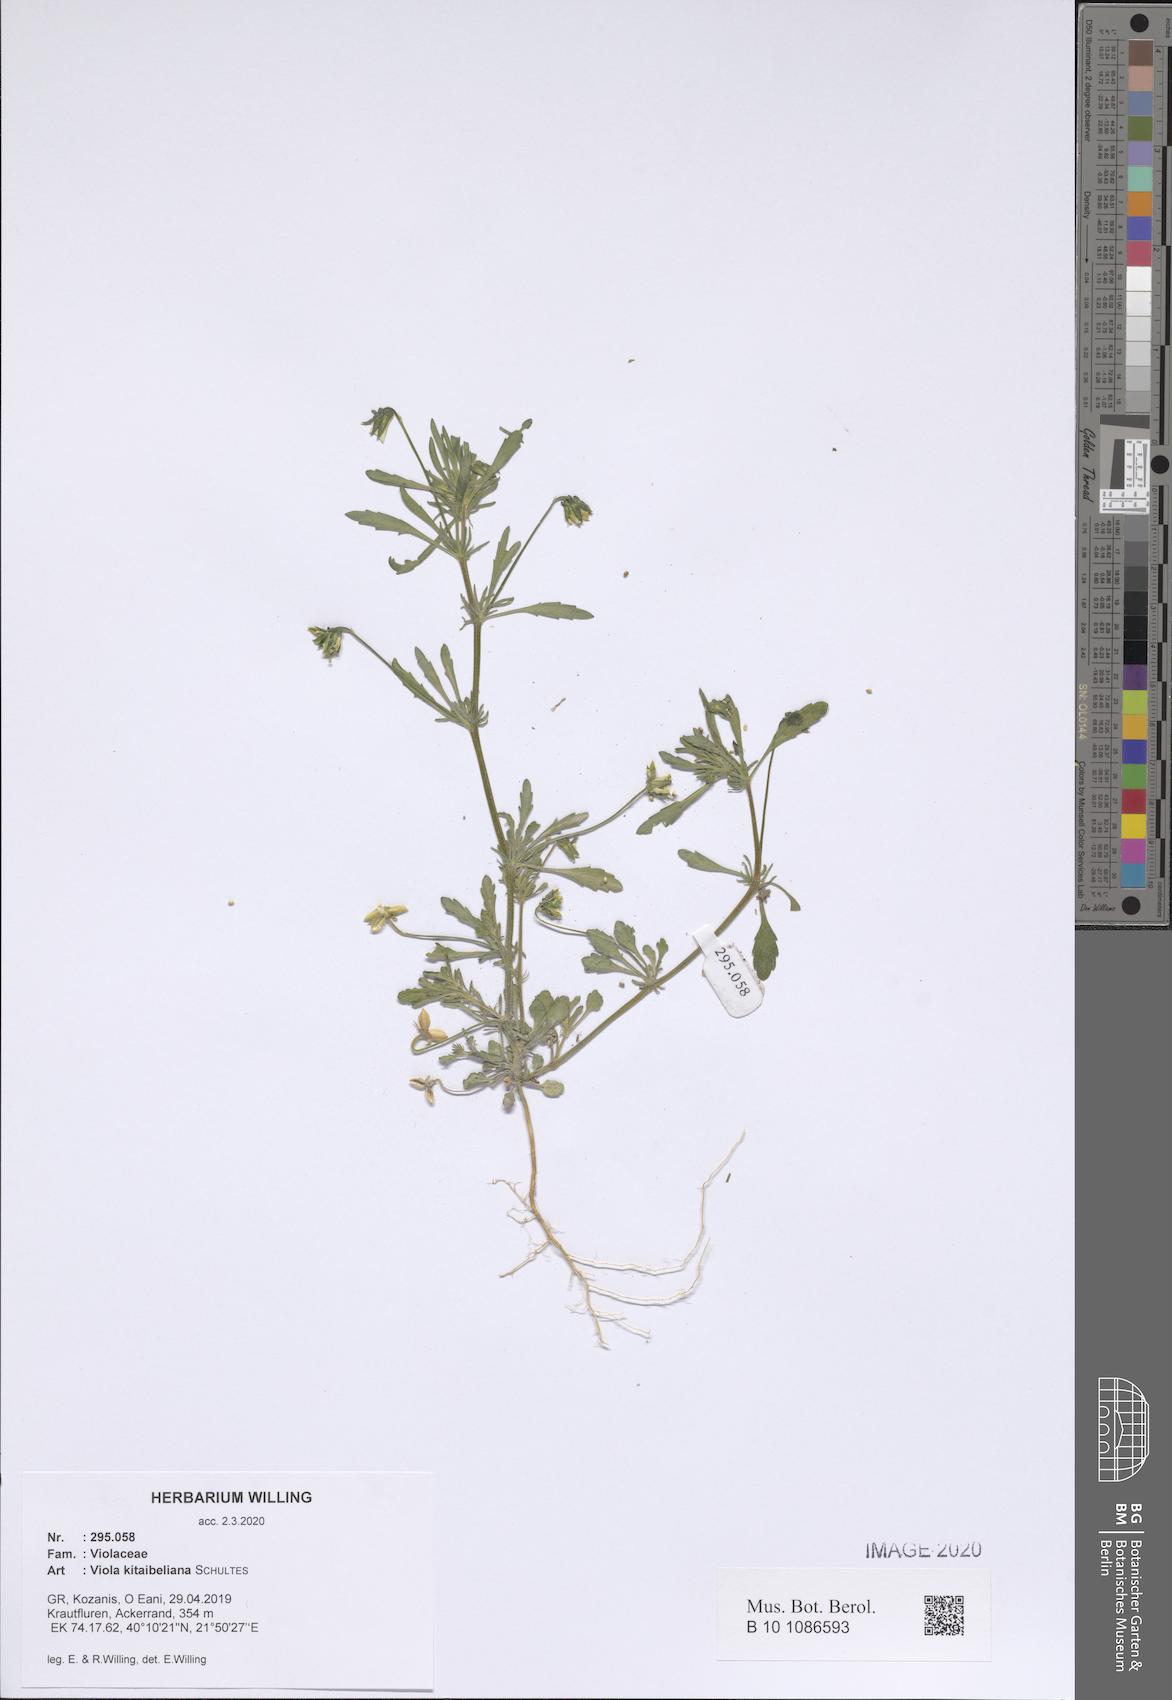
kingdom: Plantae
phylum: Tracheophyta
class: Magnoliopsida
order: Malpighiales
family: Violaceae
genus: Viola
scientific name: Viola kitaibeliana
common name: Dwarf pansy
